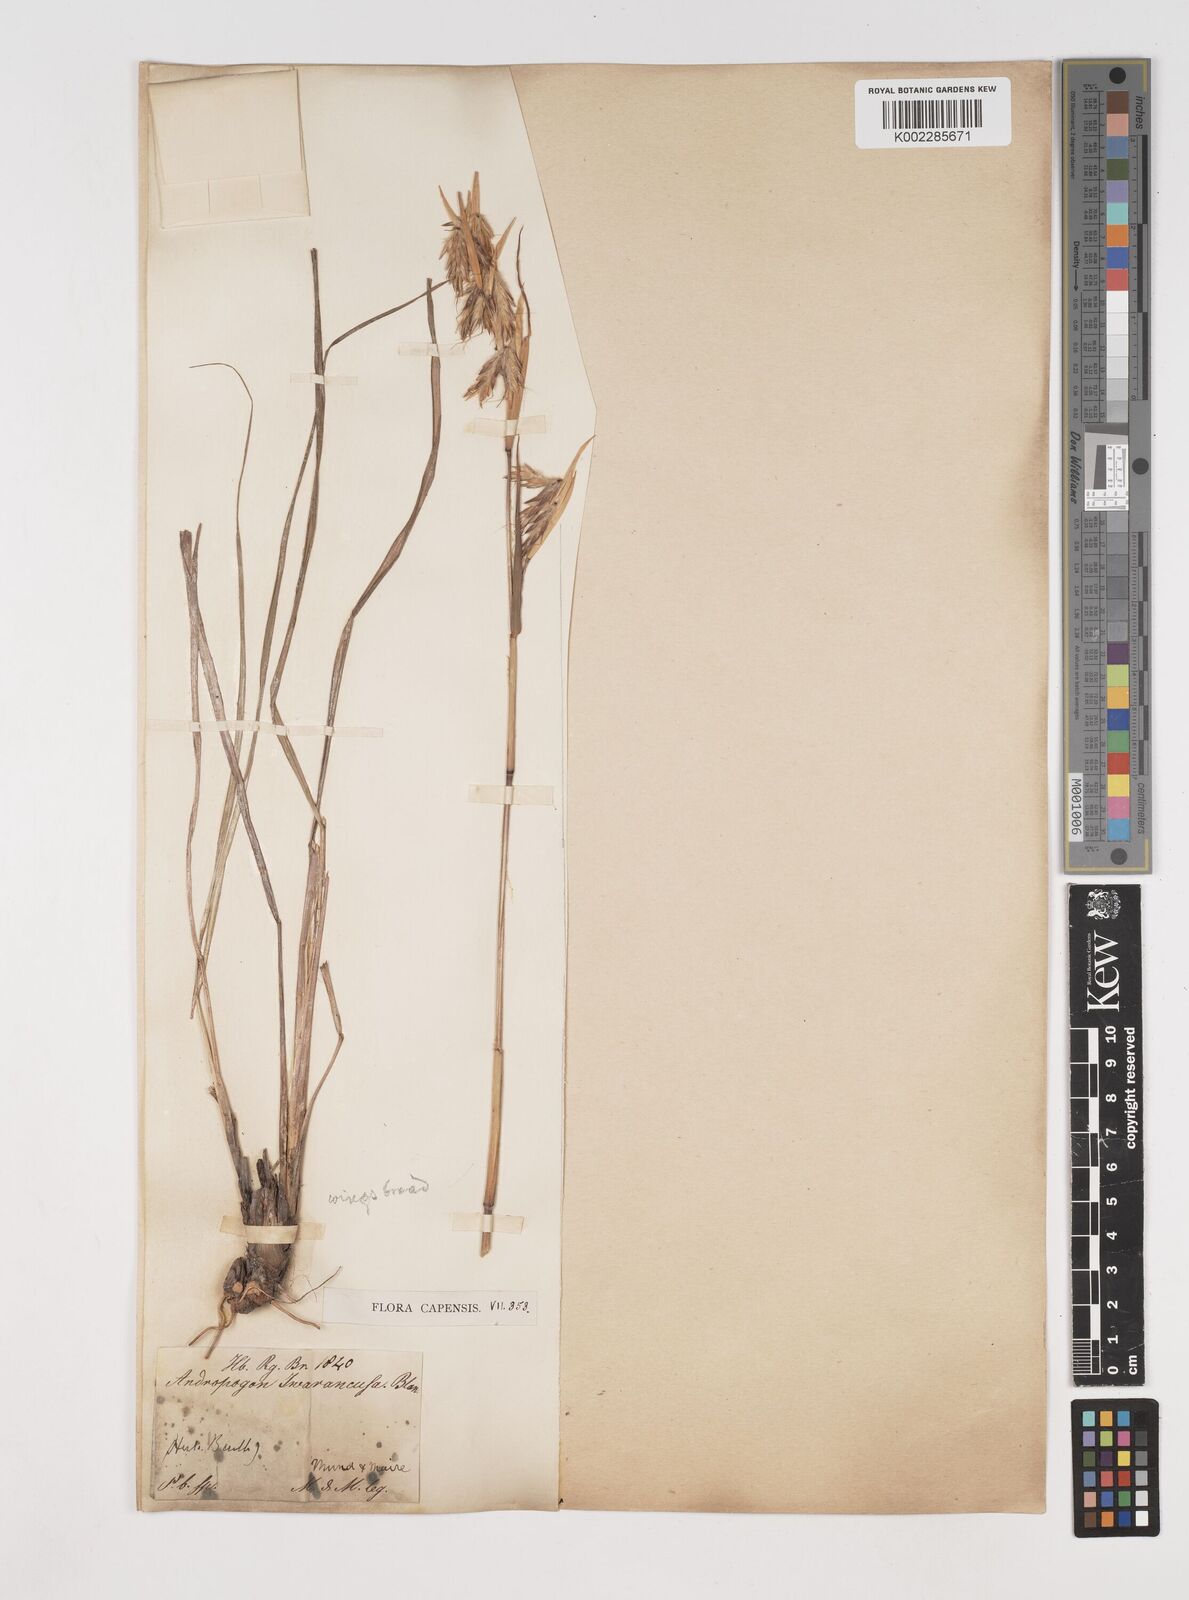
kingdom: Plantae
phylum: Tracheophyta
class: Liliopsida
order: Poales
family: Poaceae
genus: Cymbopogon
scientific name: Cymbopogon marginatus
